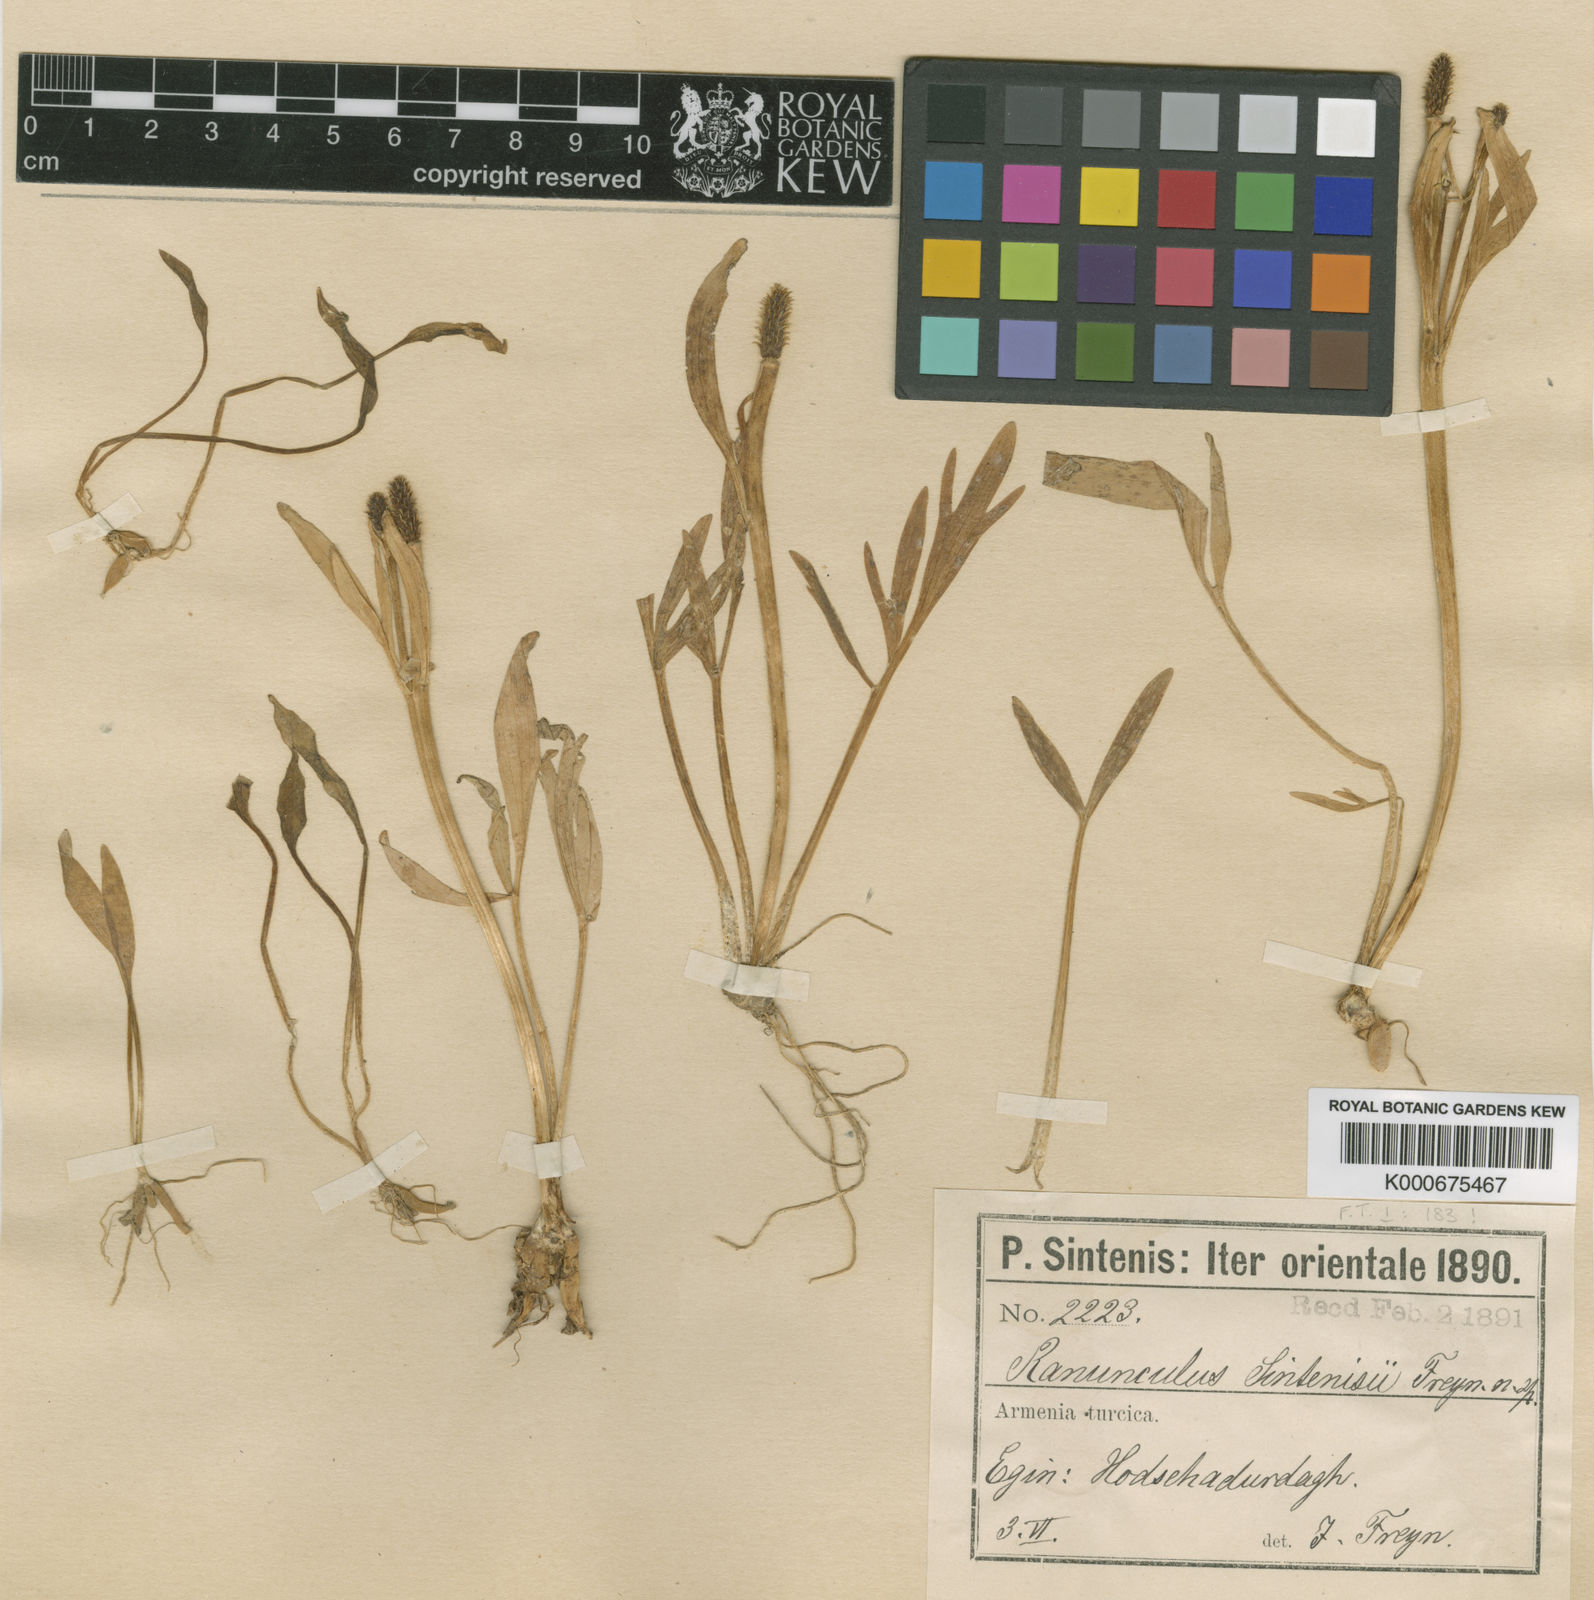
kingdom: Plantae
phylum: Tracheophyta
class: Magnoliopsida
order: Ranunculales
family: Ranunculaceae
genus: Ranunculus
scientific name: Ranunculus sintenisii
